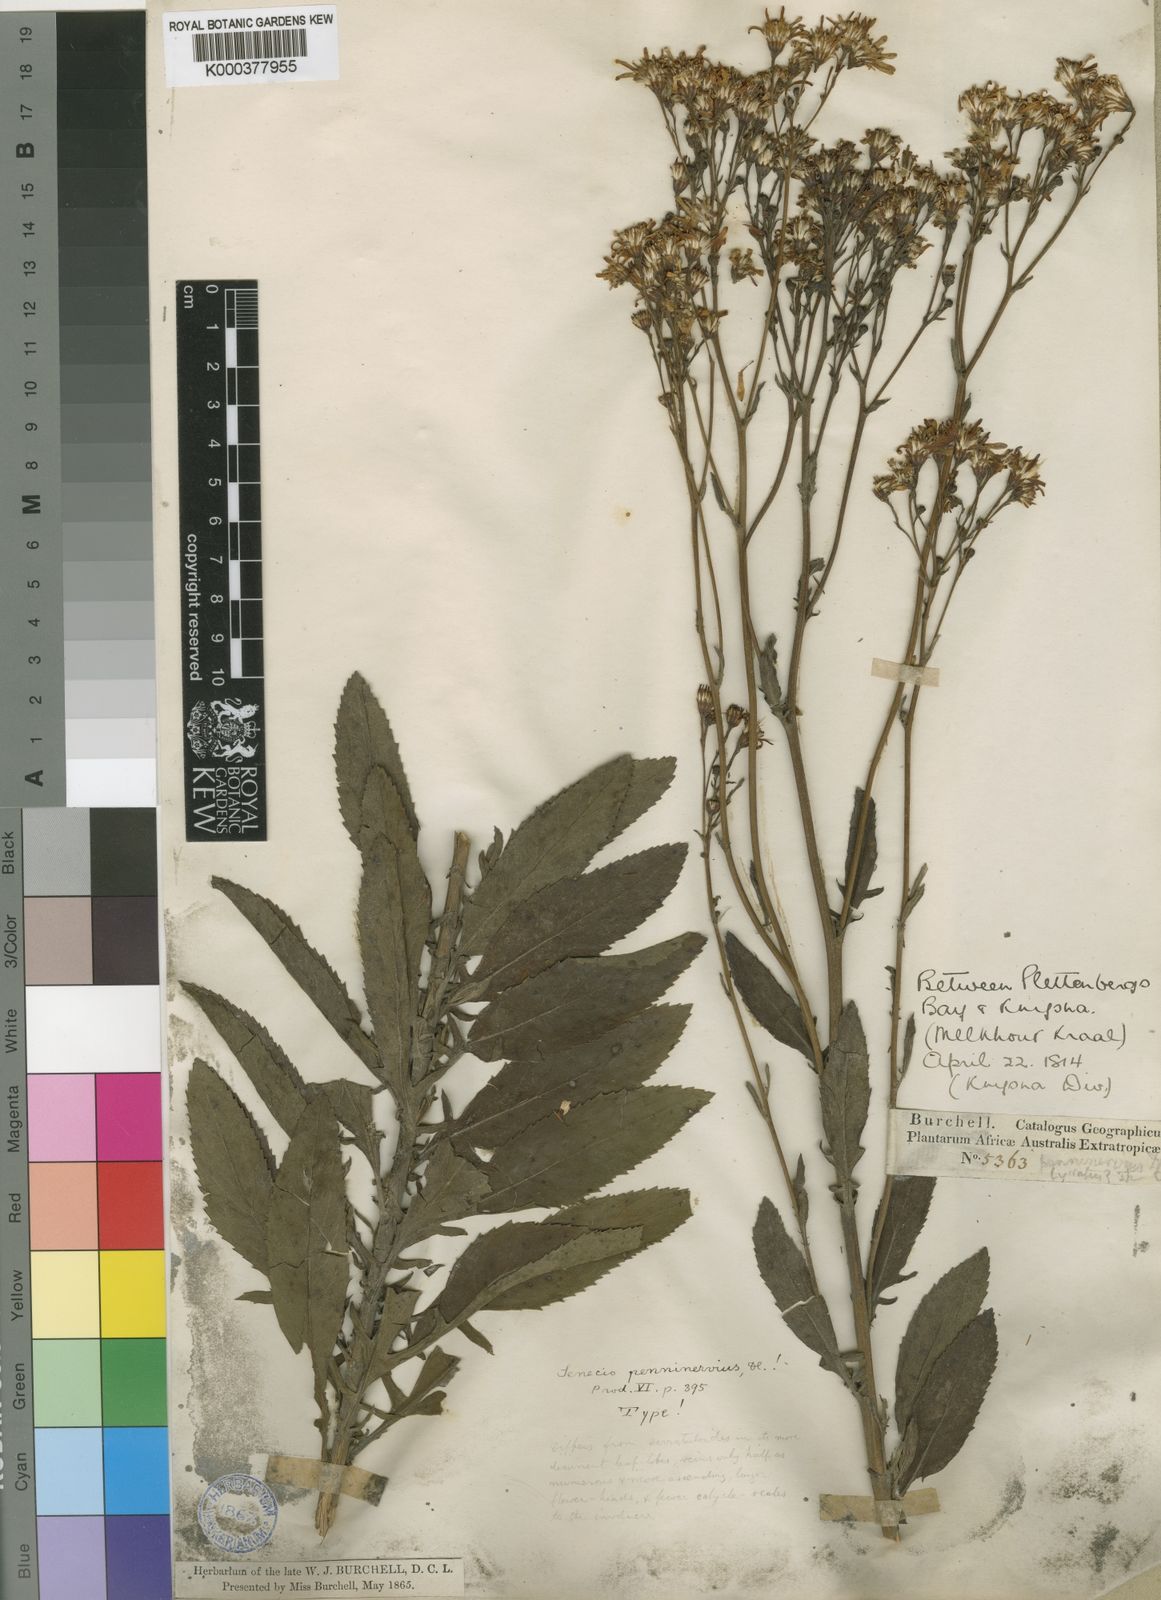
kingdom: Plantae
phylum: Tracheophyta
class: Magnoliopsida
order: Asterales
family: Asteraceae
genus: Senecio
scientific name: Senecio penninervius
